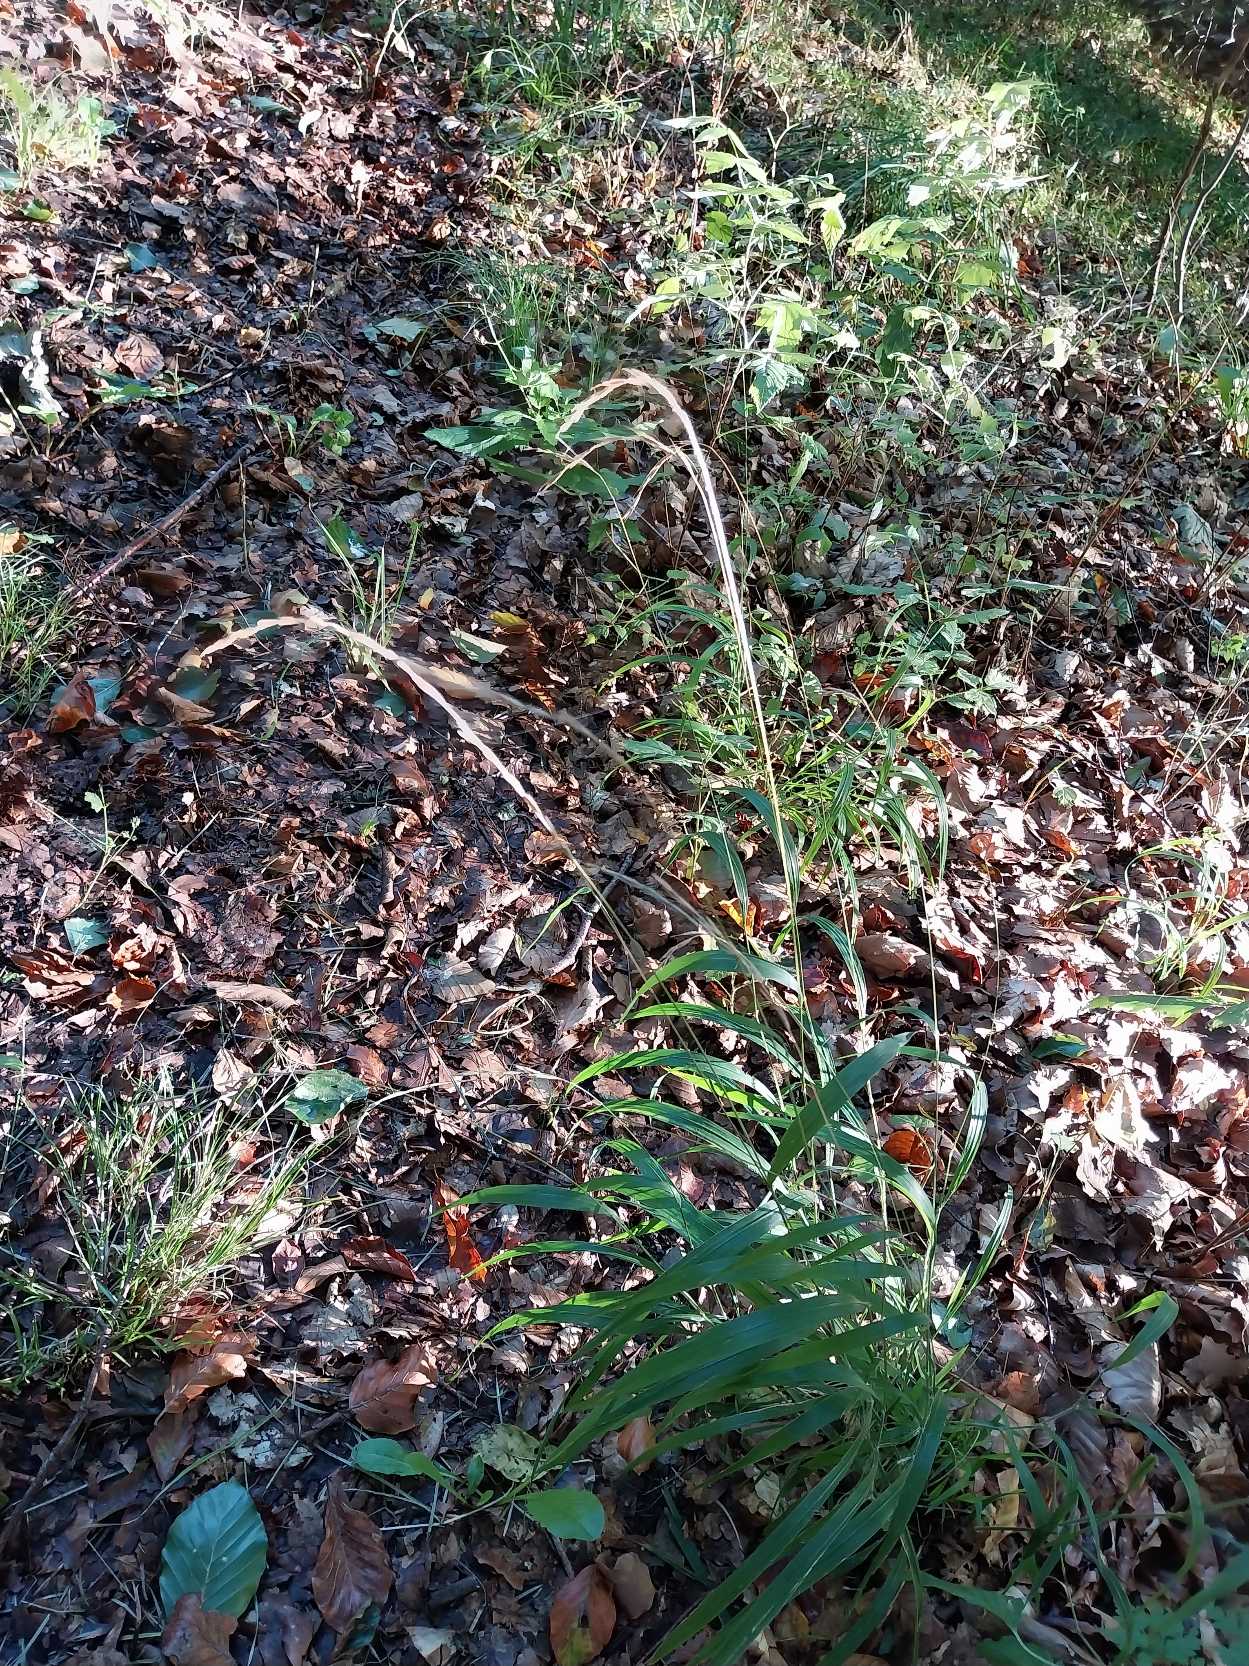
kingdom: Plantae
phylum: Tracheophyta
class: Liliopsida
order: Poales
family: Poaceae
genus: Brachypodium
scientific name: Brachypodium sylvaticum
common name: Skov-stilkaks
